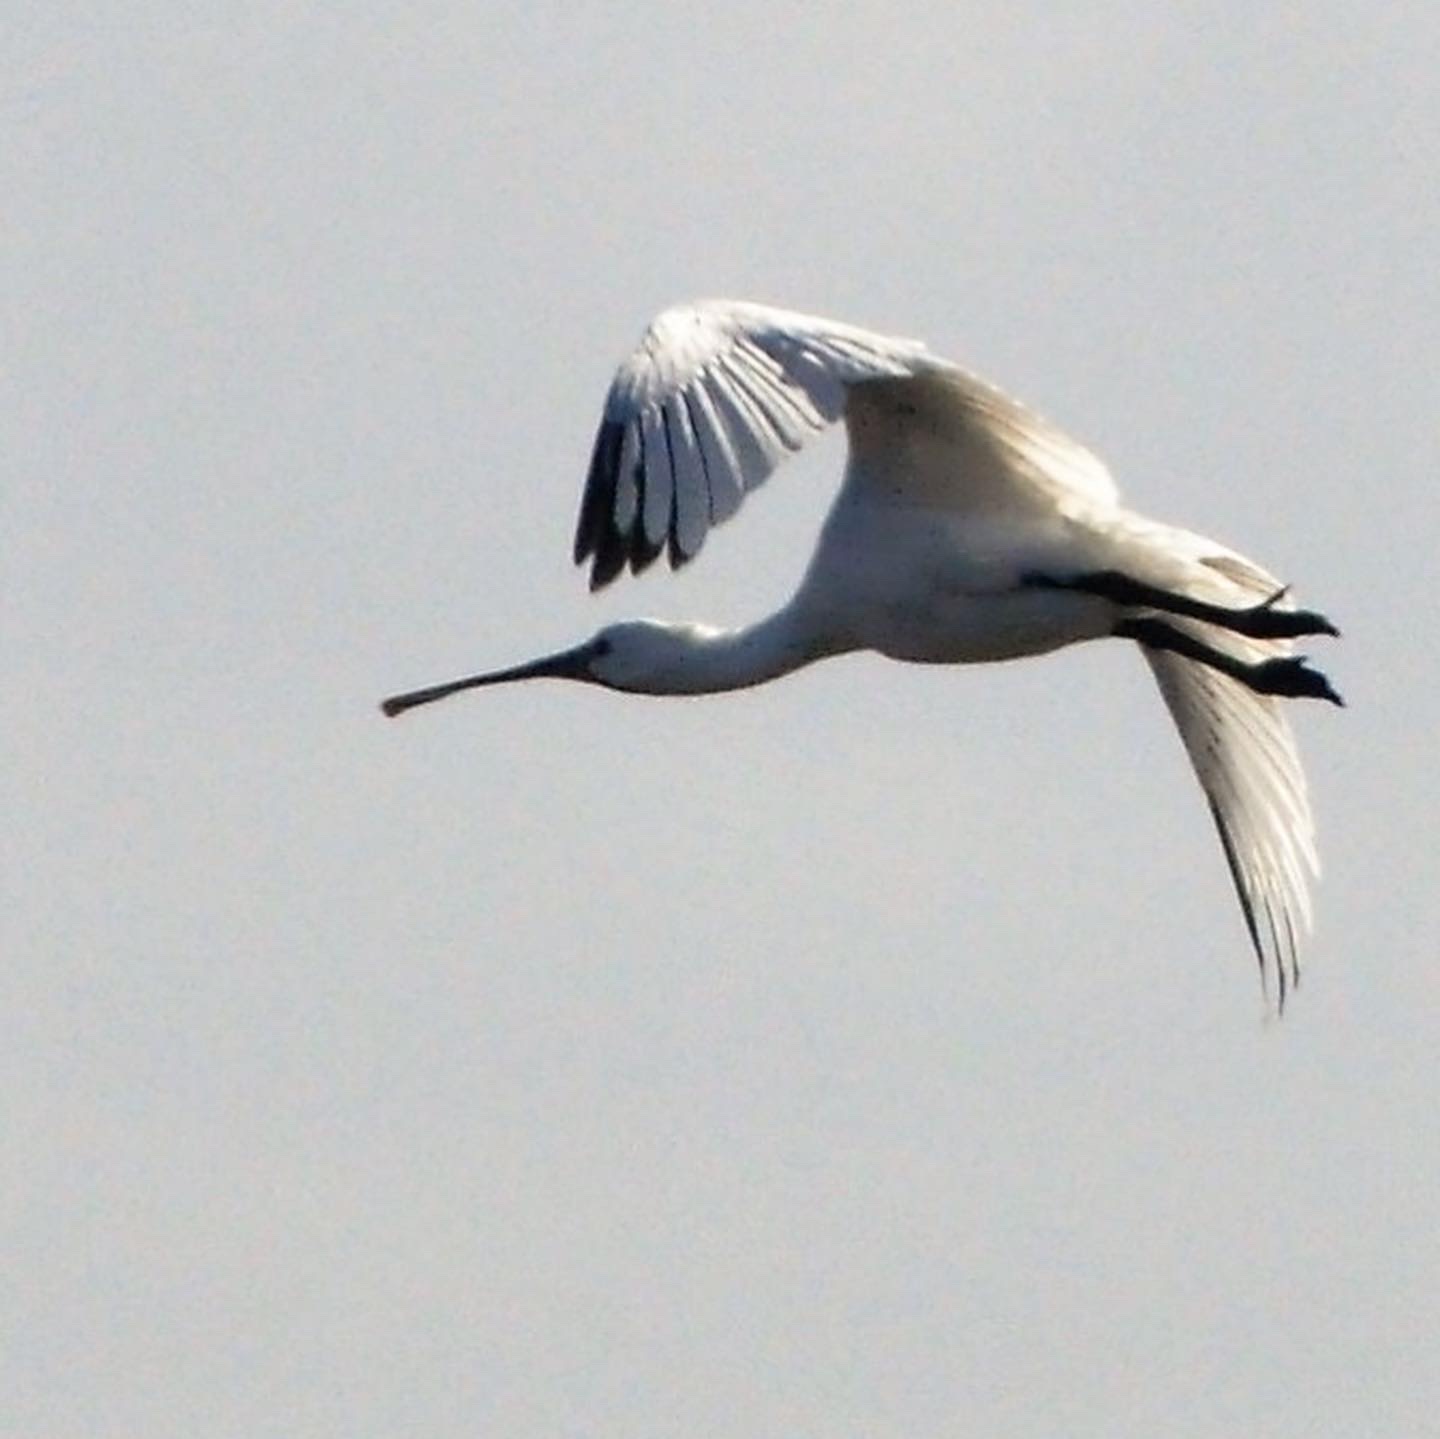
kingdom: Animalia
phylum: Chordata
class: Aves
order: Pelecaniformes
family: Threskiornithidae
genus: Platalea
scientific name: Platalea leucorodia
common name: Skestork
